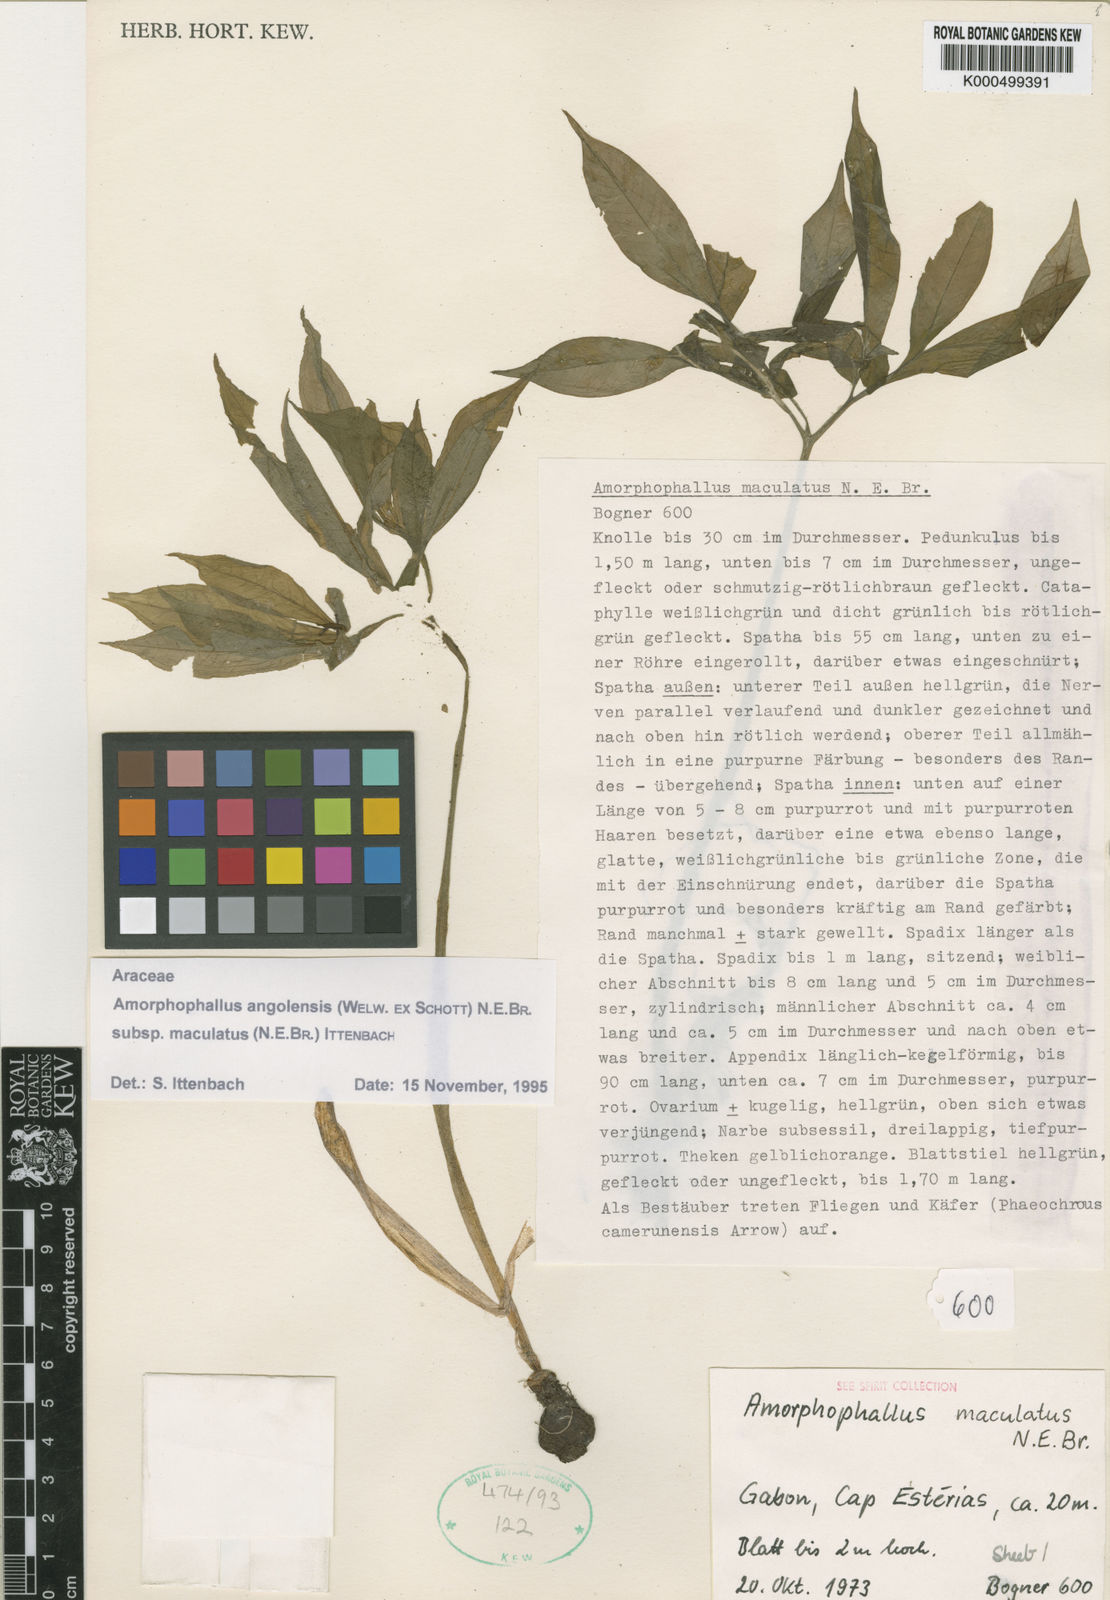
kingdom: Plantae
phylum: Tracheophyta
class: Liliopsida
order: Alismatales
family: Araceae
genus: Amorphophallus
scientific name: Amorphophallus
